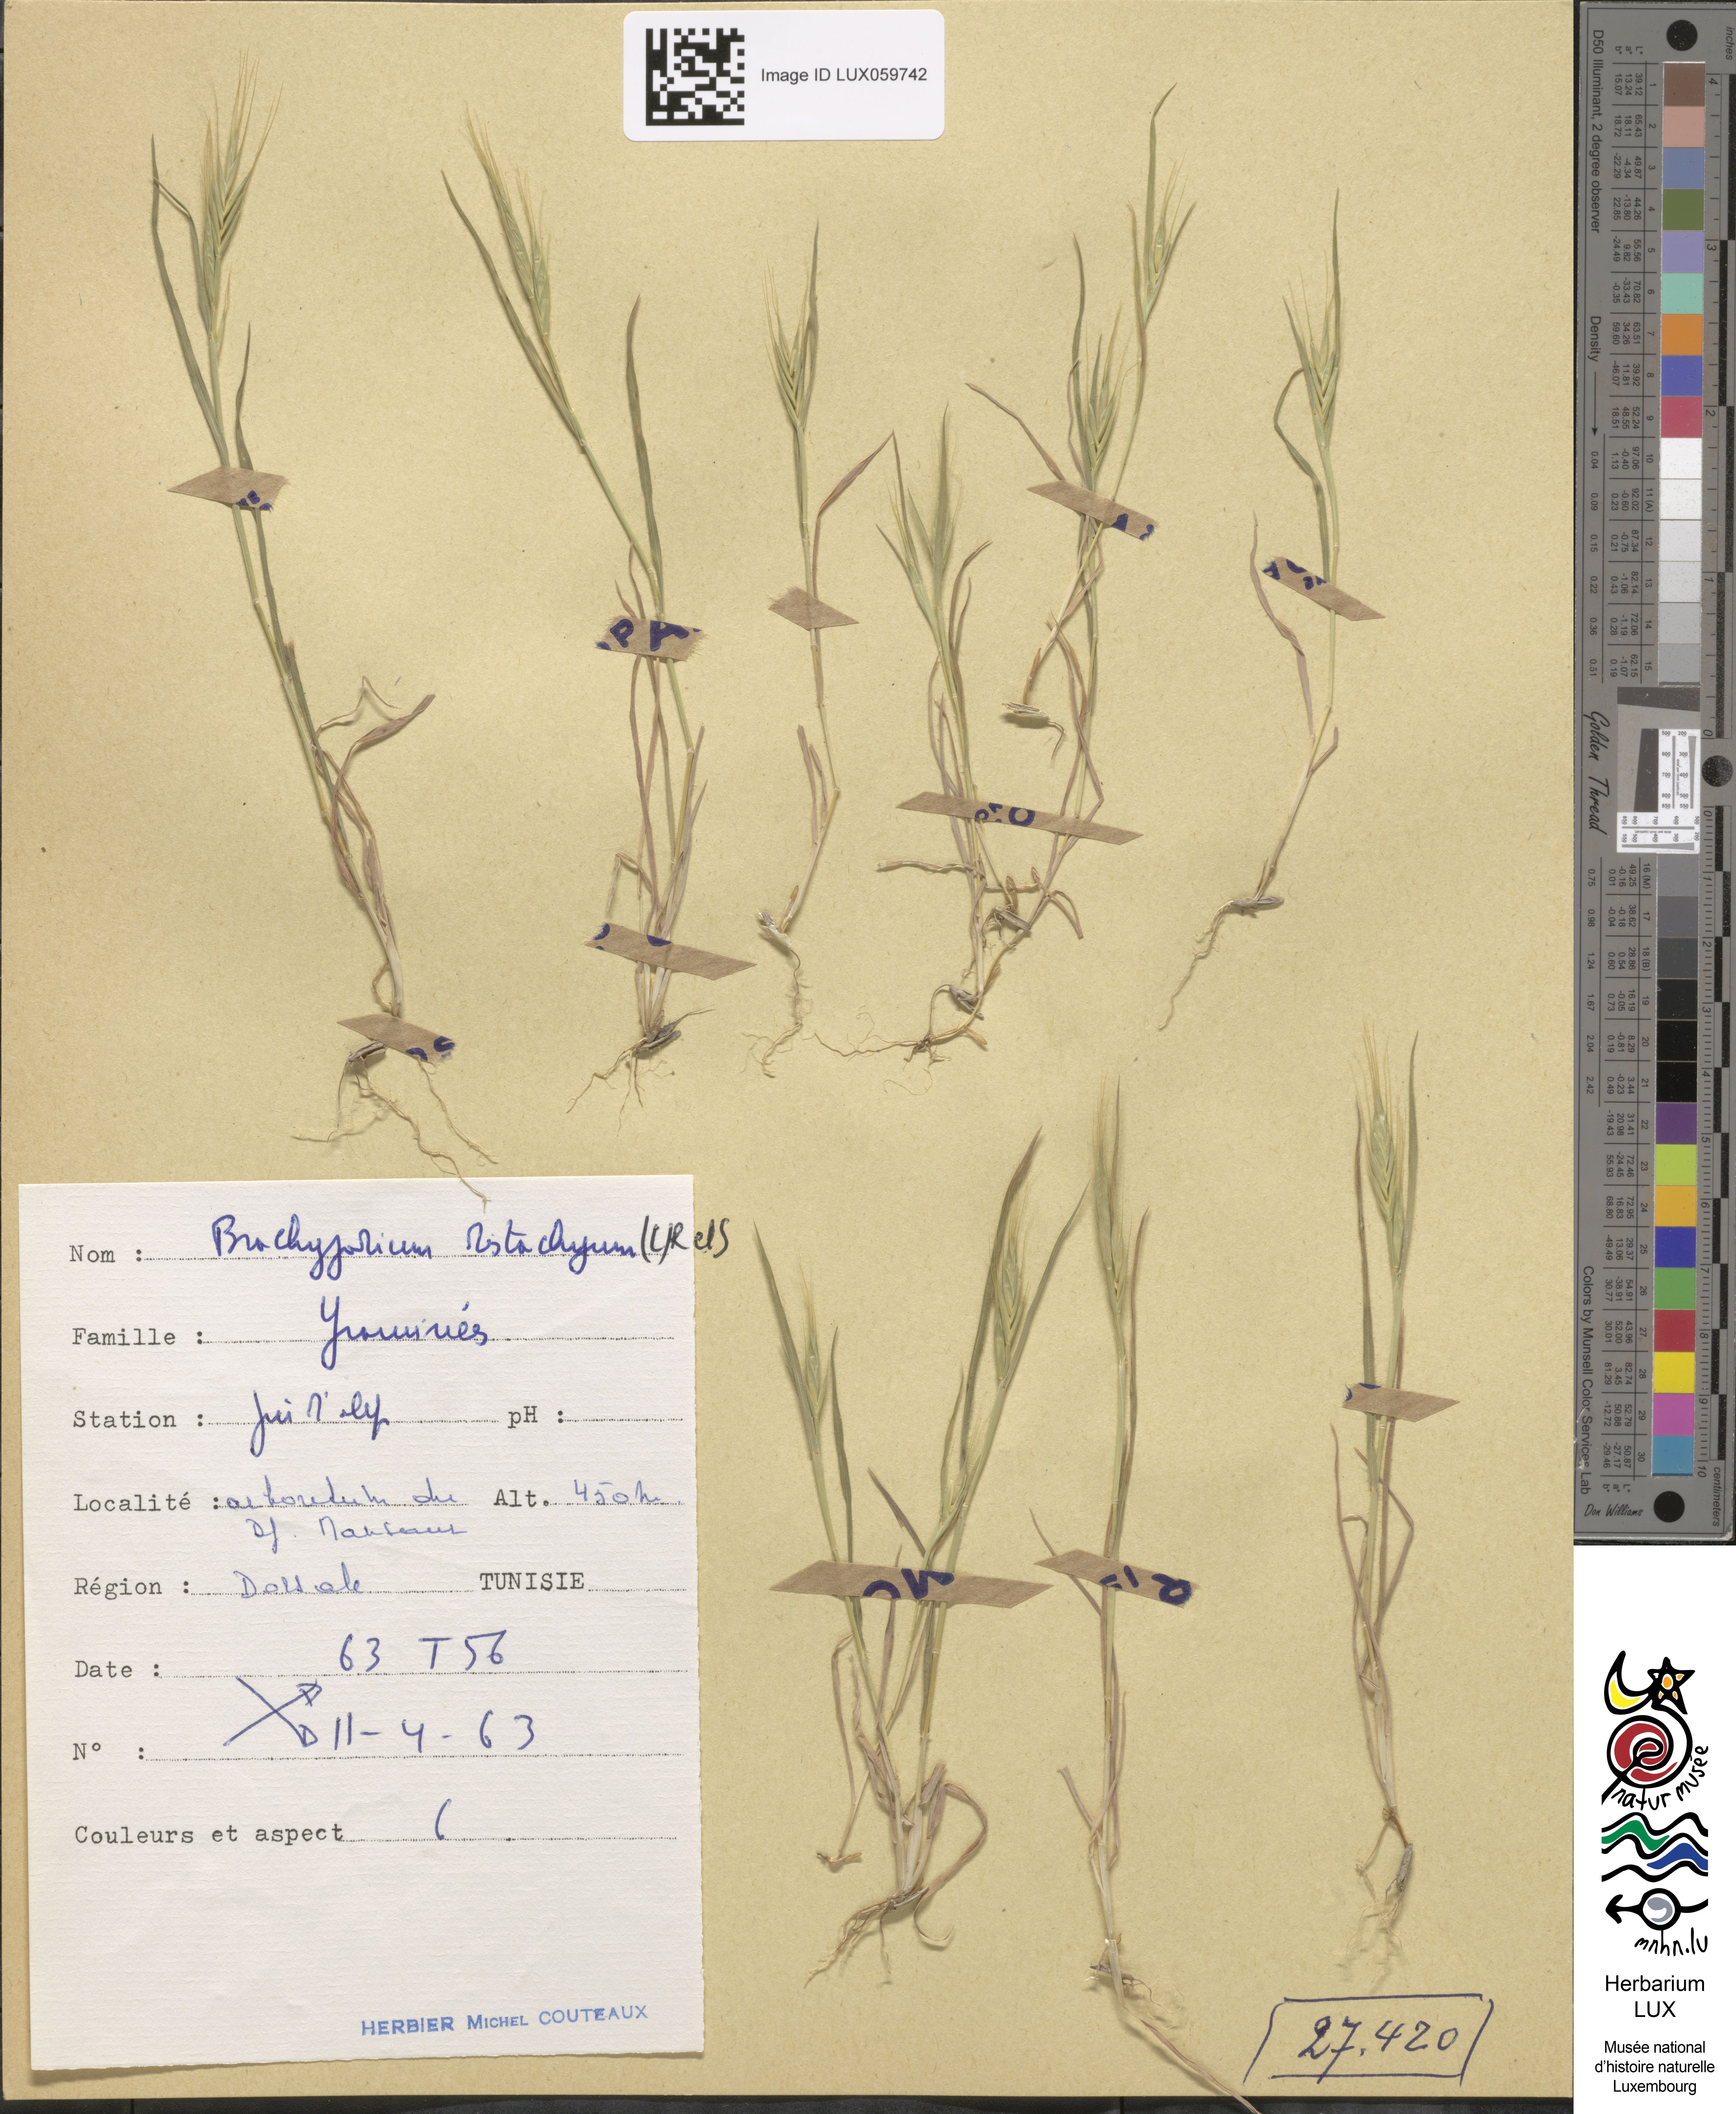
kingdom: Plantae
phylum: Tracheophyta
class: Liliopsida
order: Poales
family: Poaceae
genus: Brachypodium
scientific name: Brachypodium distachyon
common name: Stiff brome
